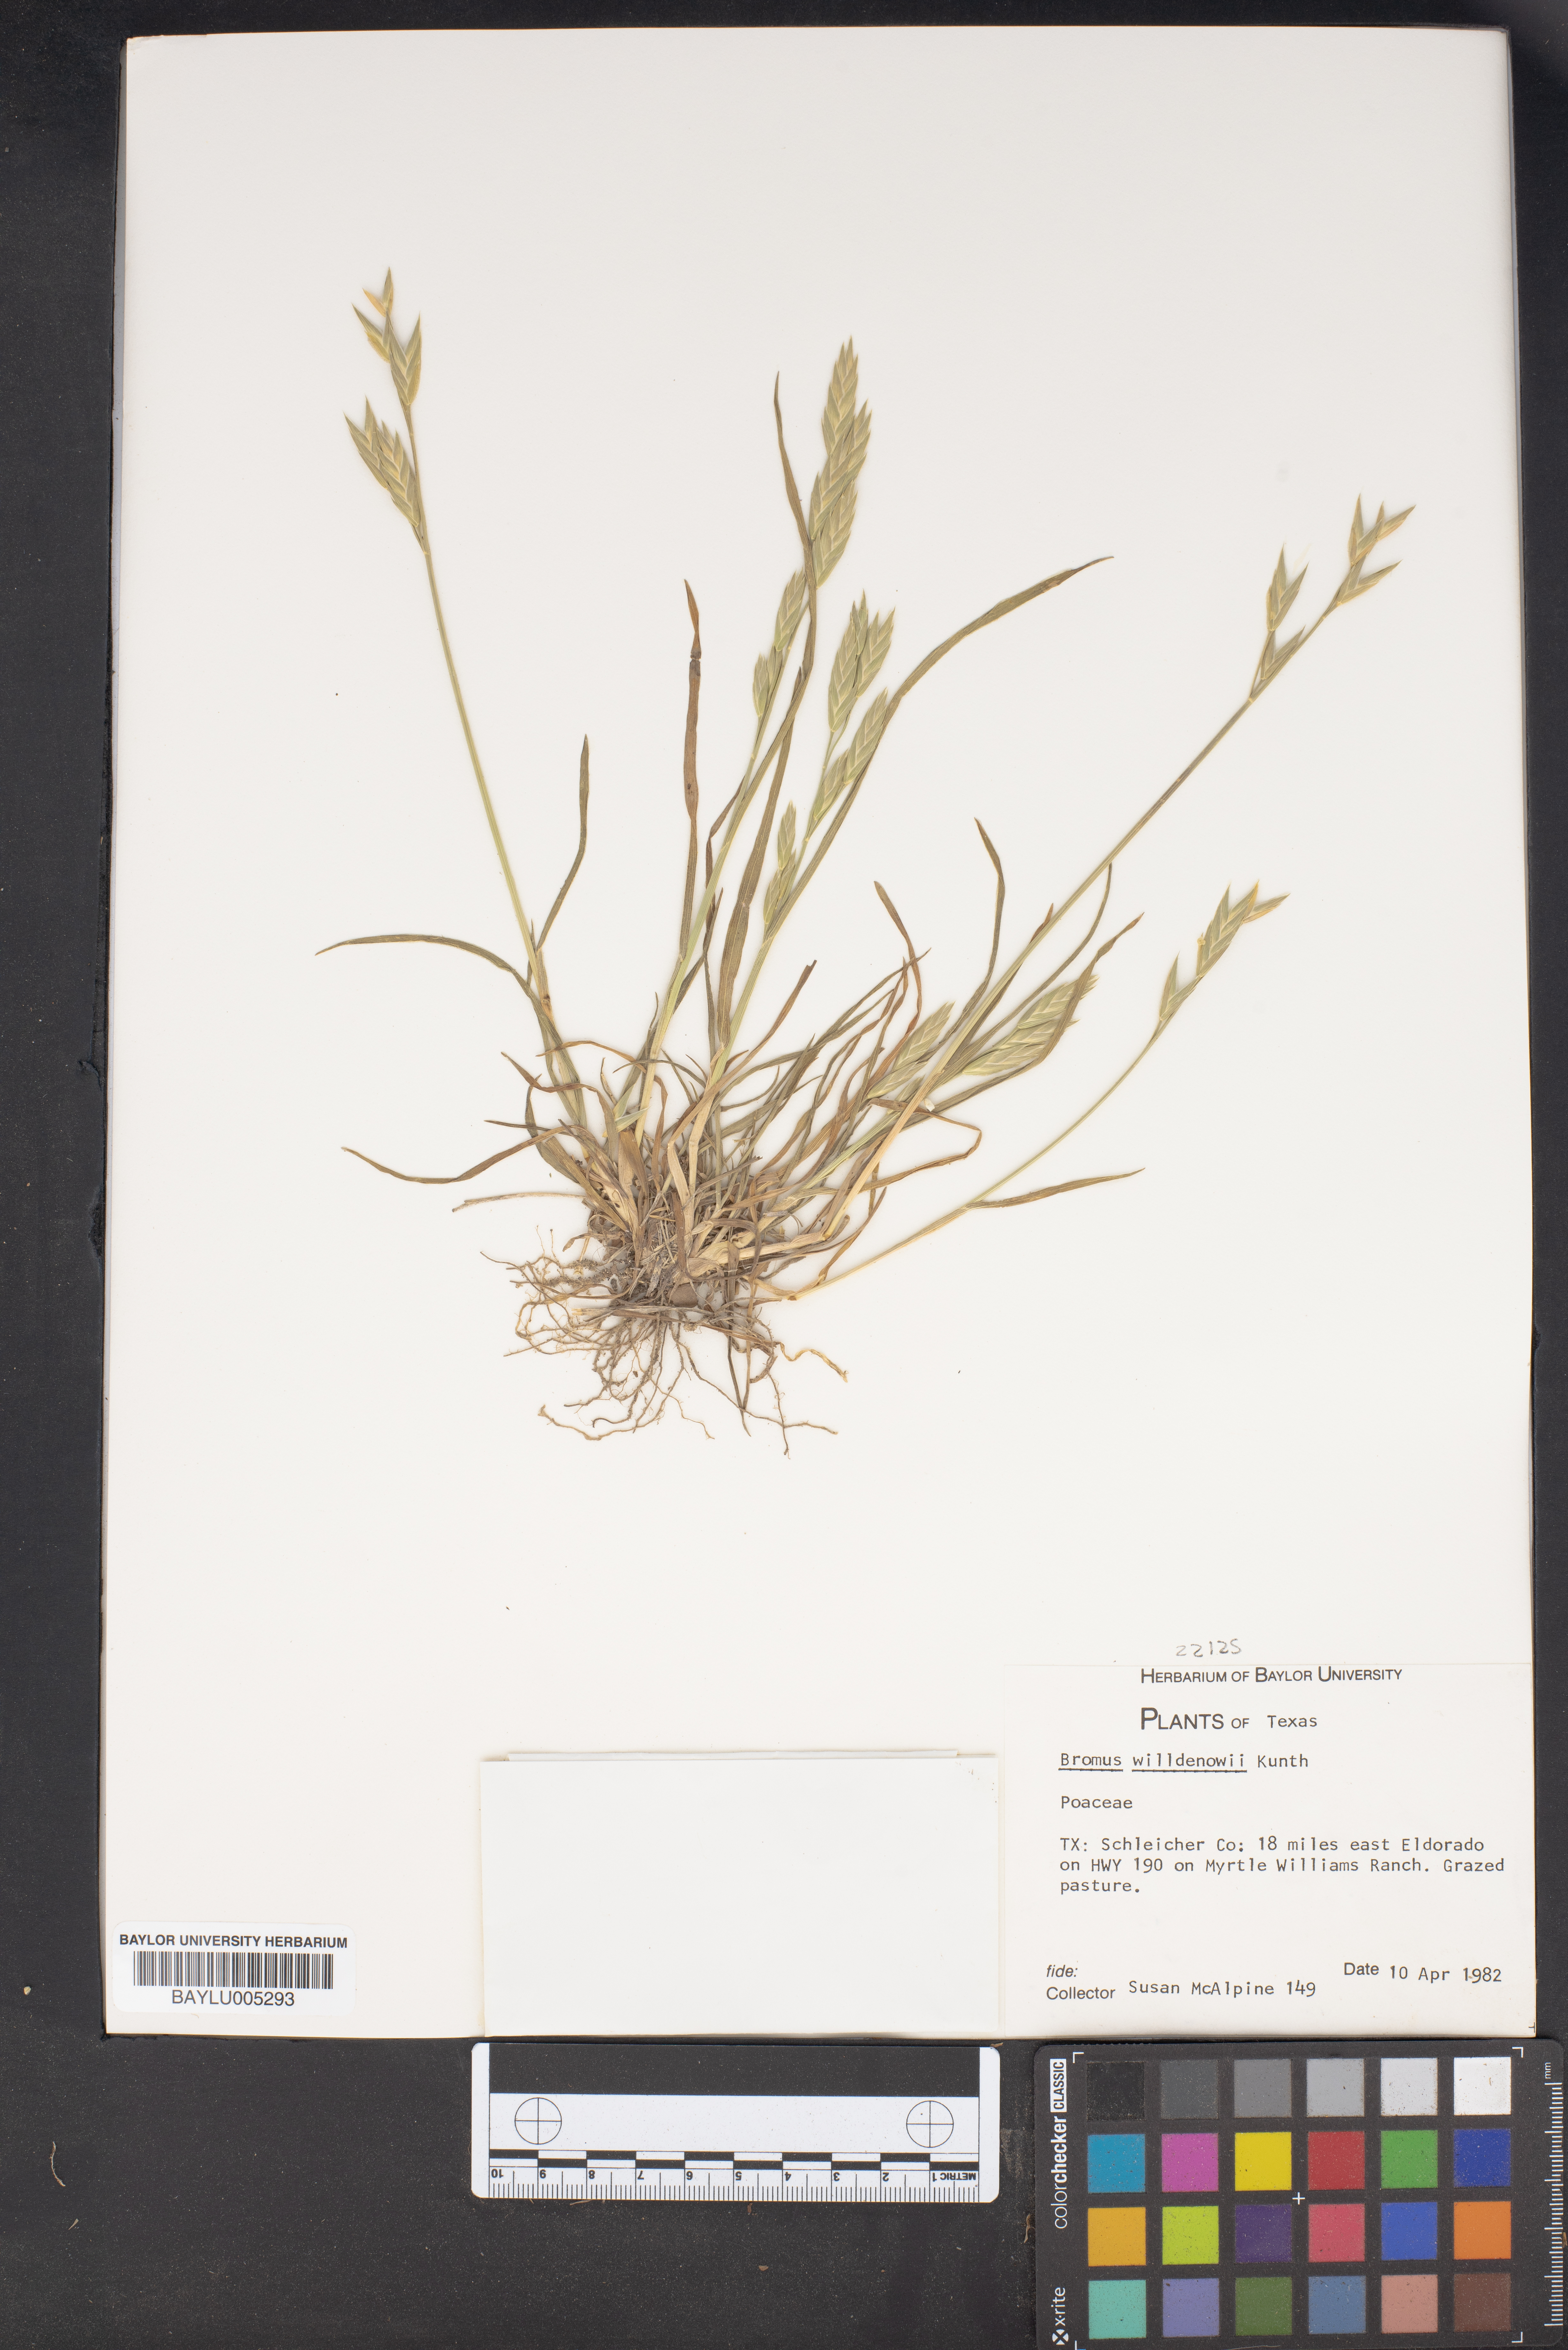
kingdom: Plantae
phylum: Tracheophyta
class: Liliopsida
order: Poales
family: Poaceae
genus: Bromus
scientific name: Bromus catharticus
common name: Rescuegrass
